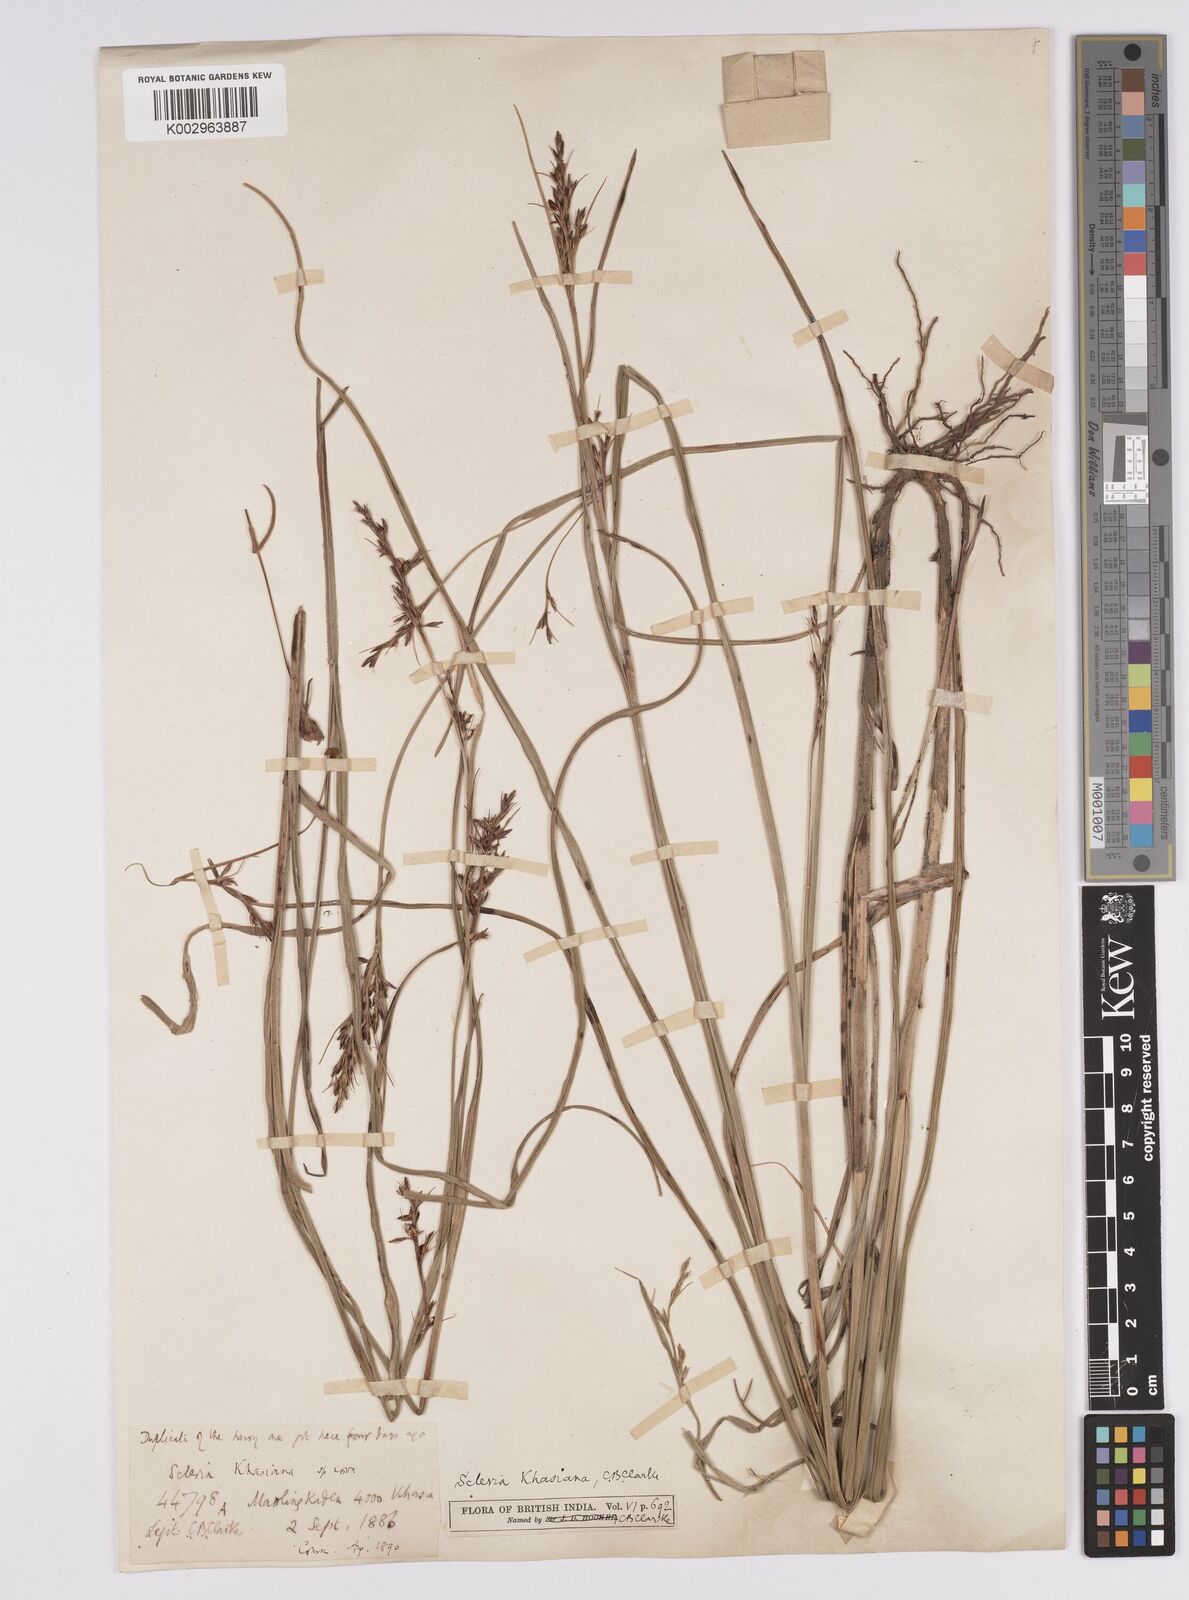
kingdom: Plantae
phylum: Tracheophyta
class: Liliopsida
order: Poales
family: Cyperaceae
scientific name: Cyperaceae
